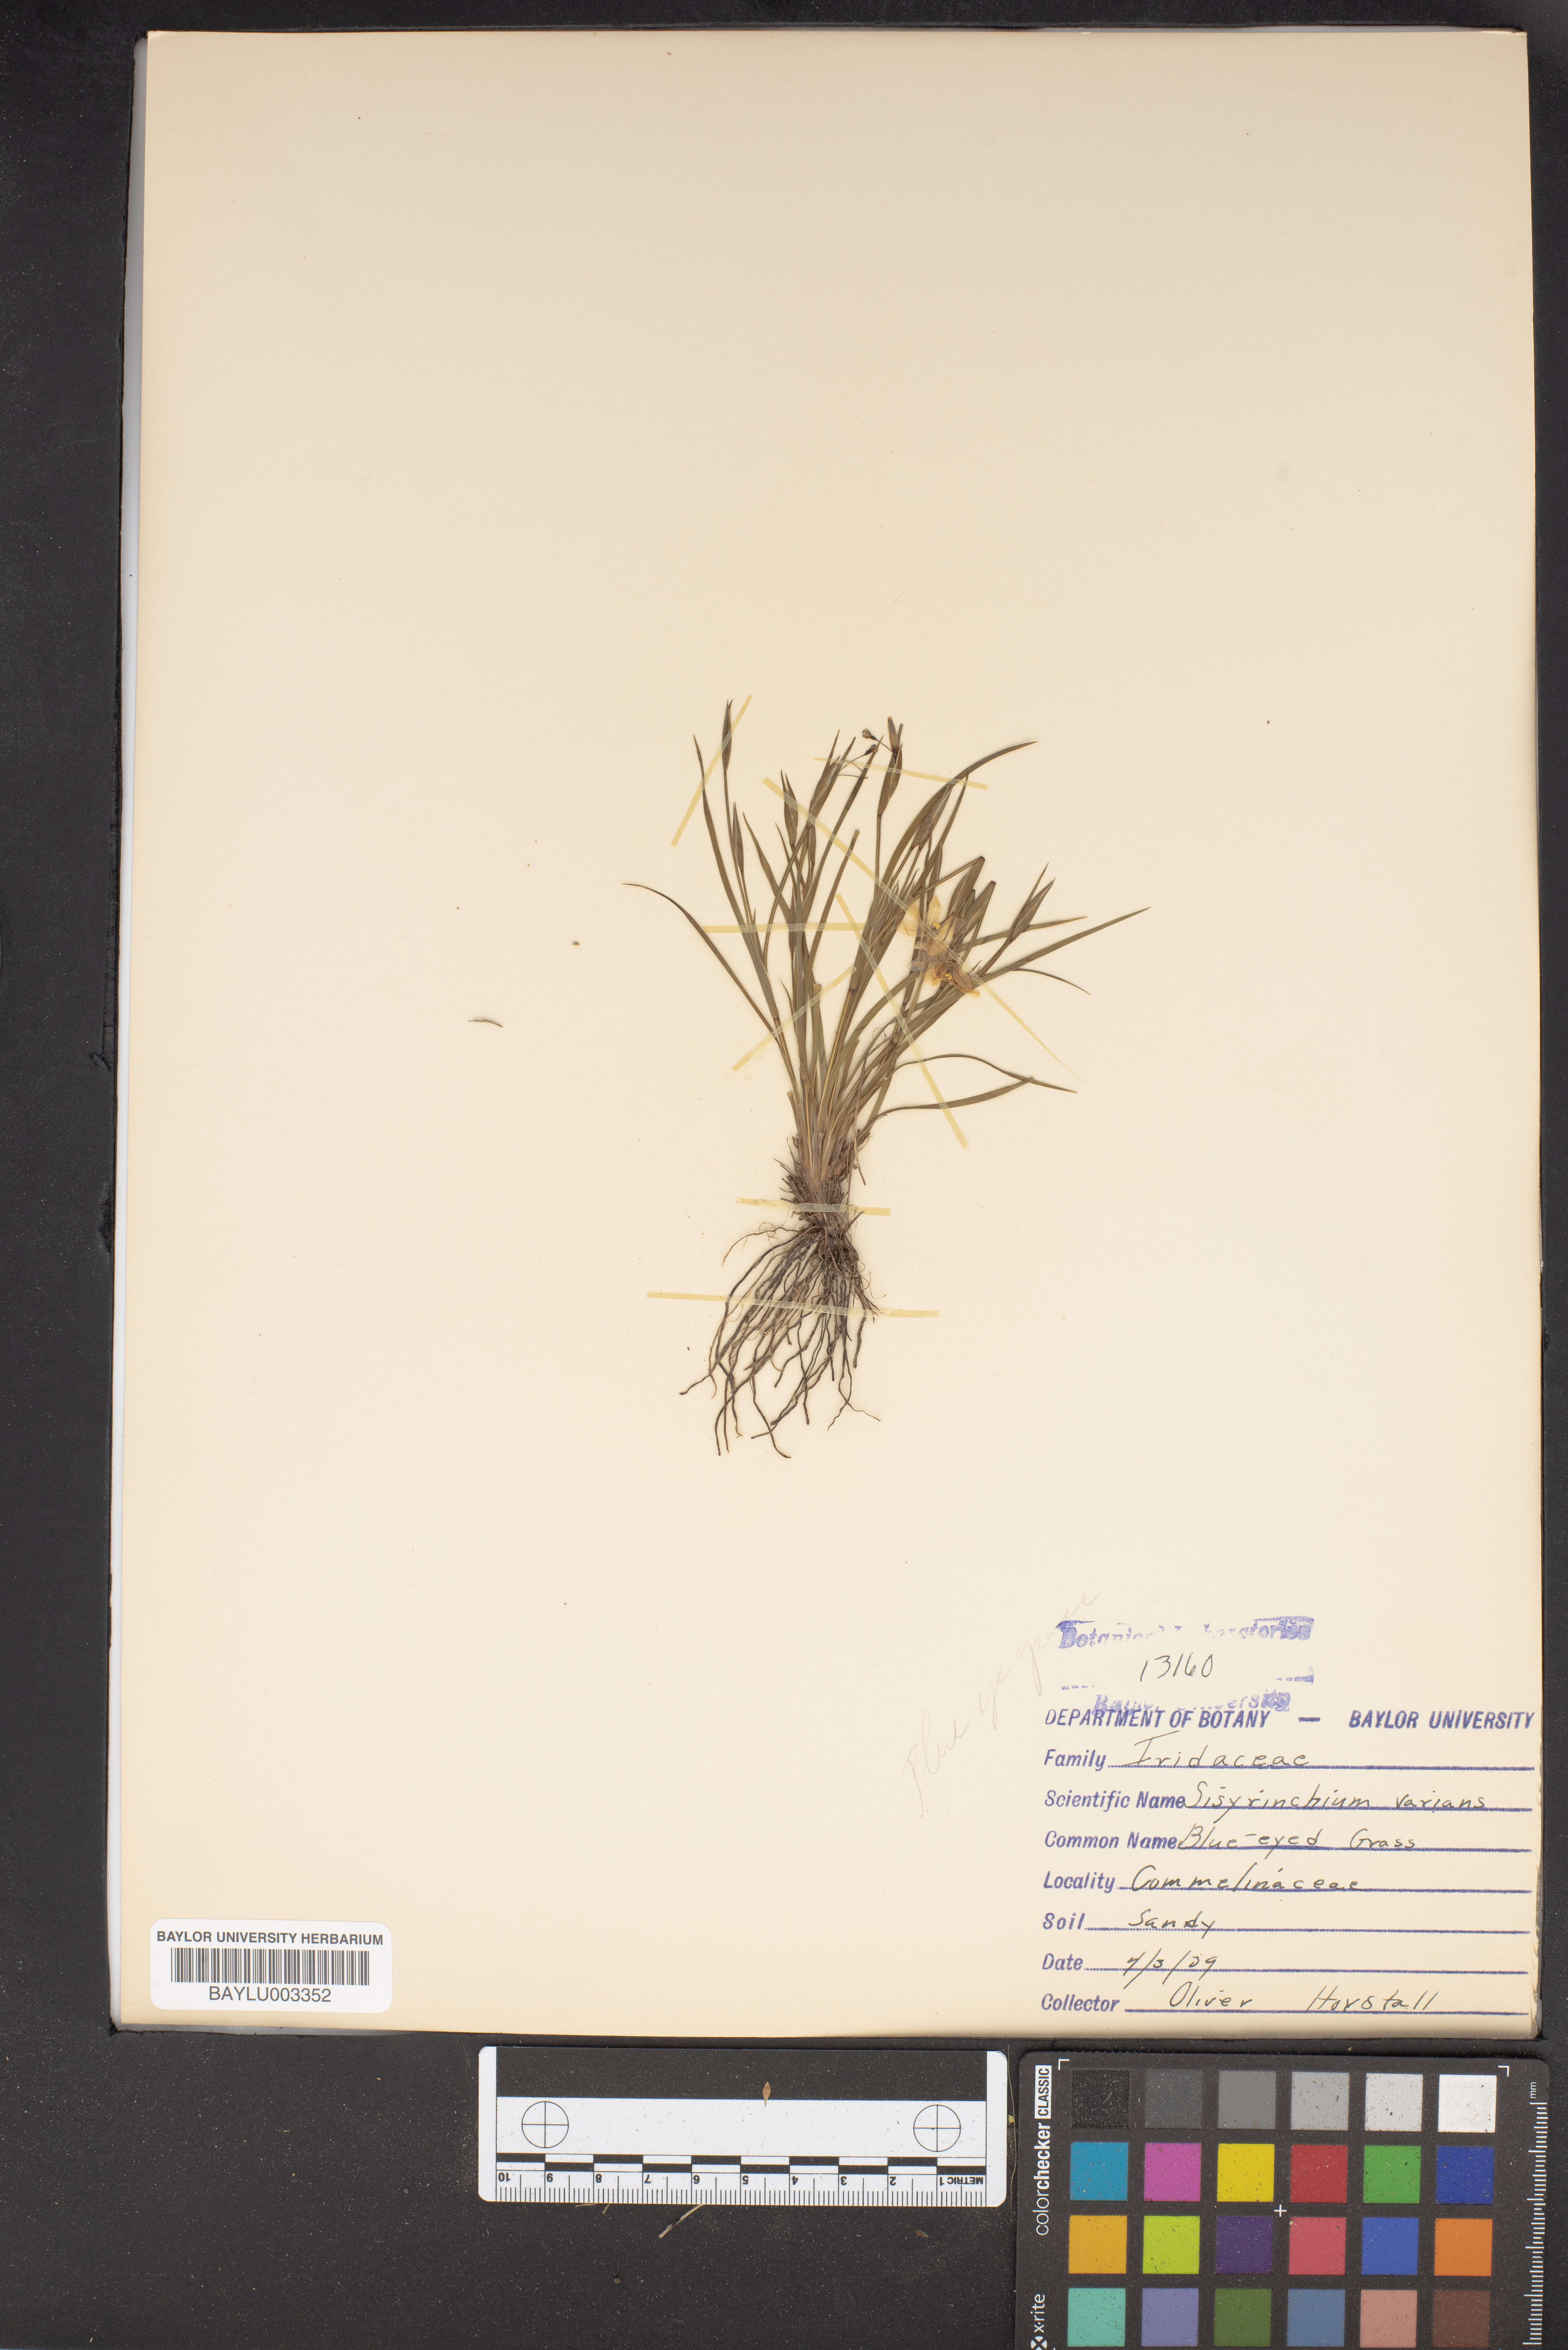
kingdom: Plantae
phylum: Tracheophyta
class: Liliopsida
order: Asparagales
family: Iridaceae
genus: Sisyrinchium
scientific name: Sisyrinchium pruinosum
